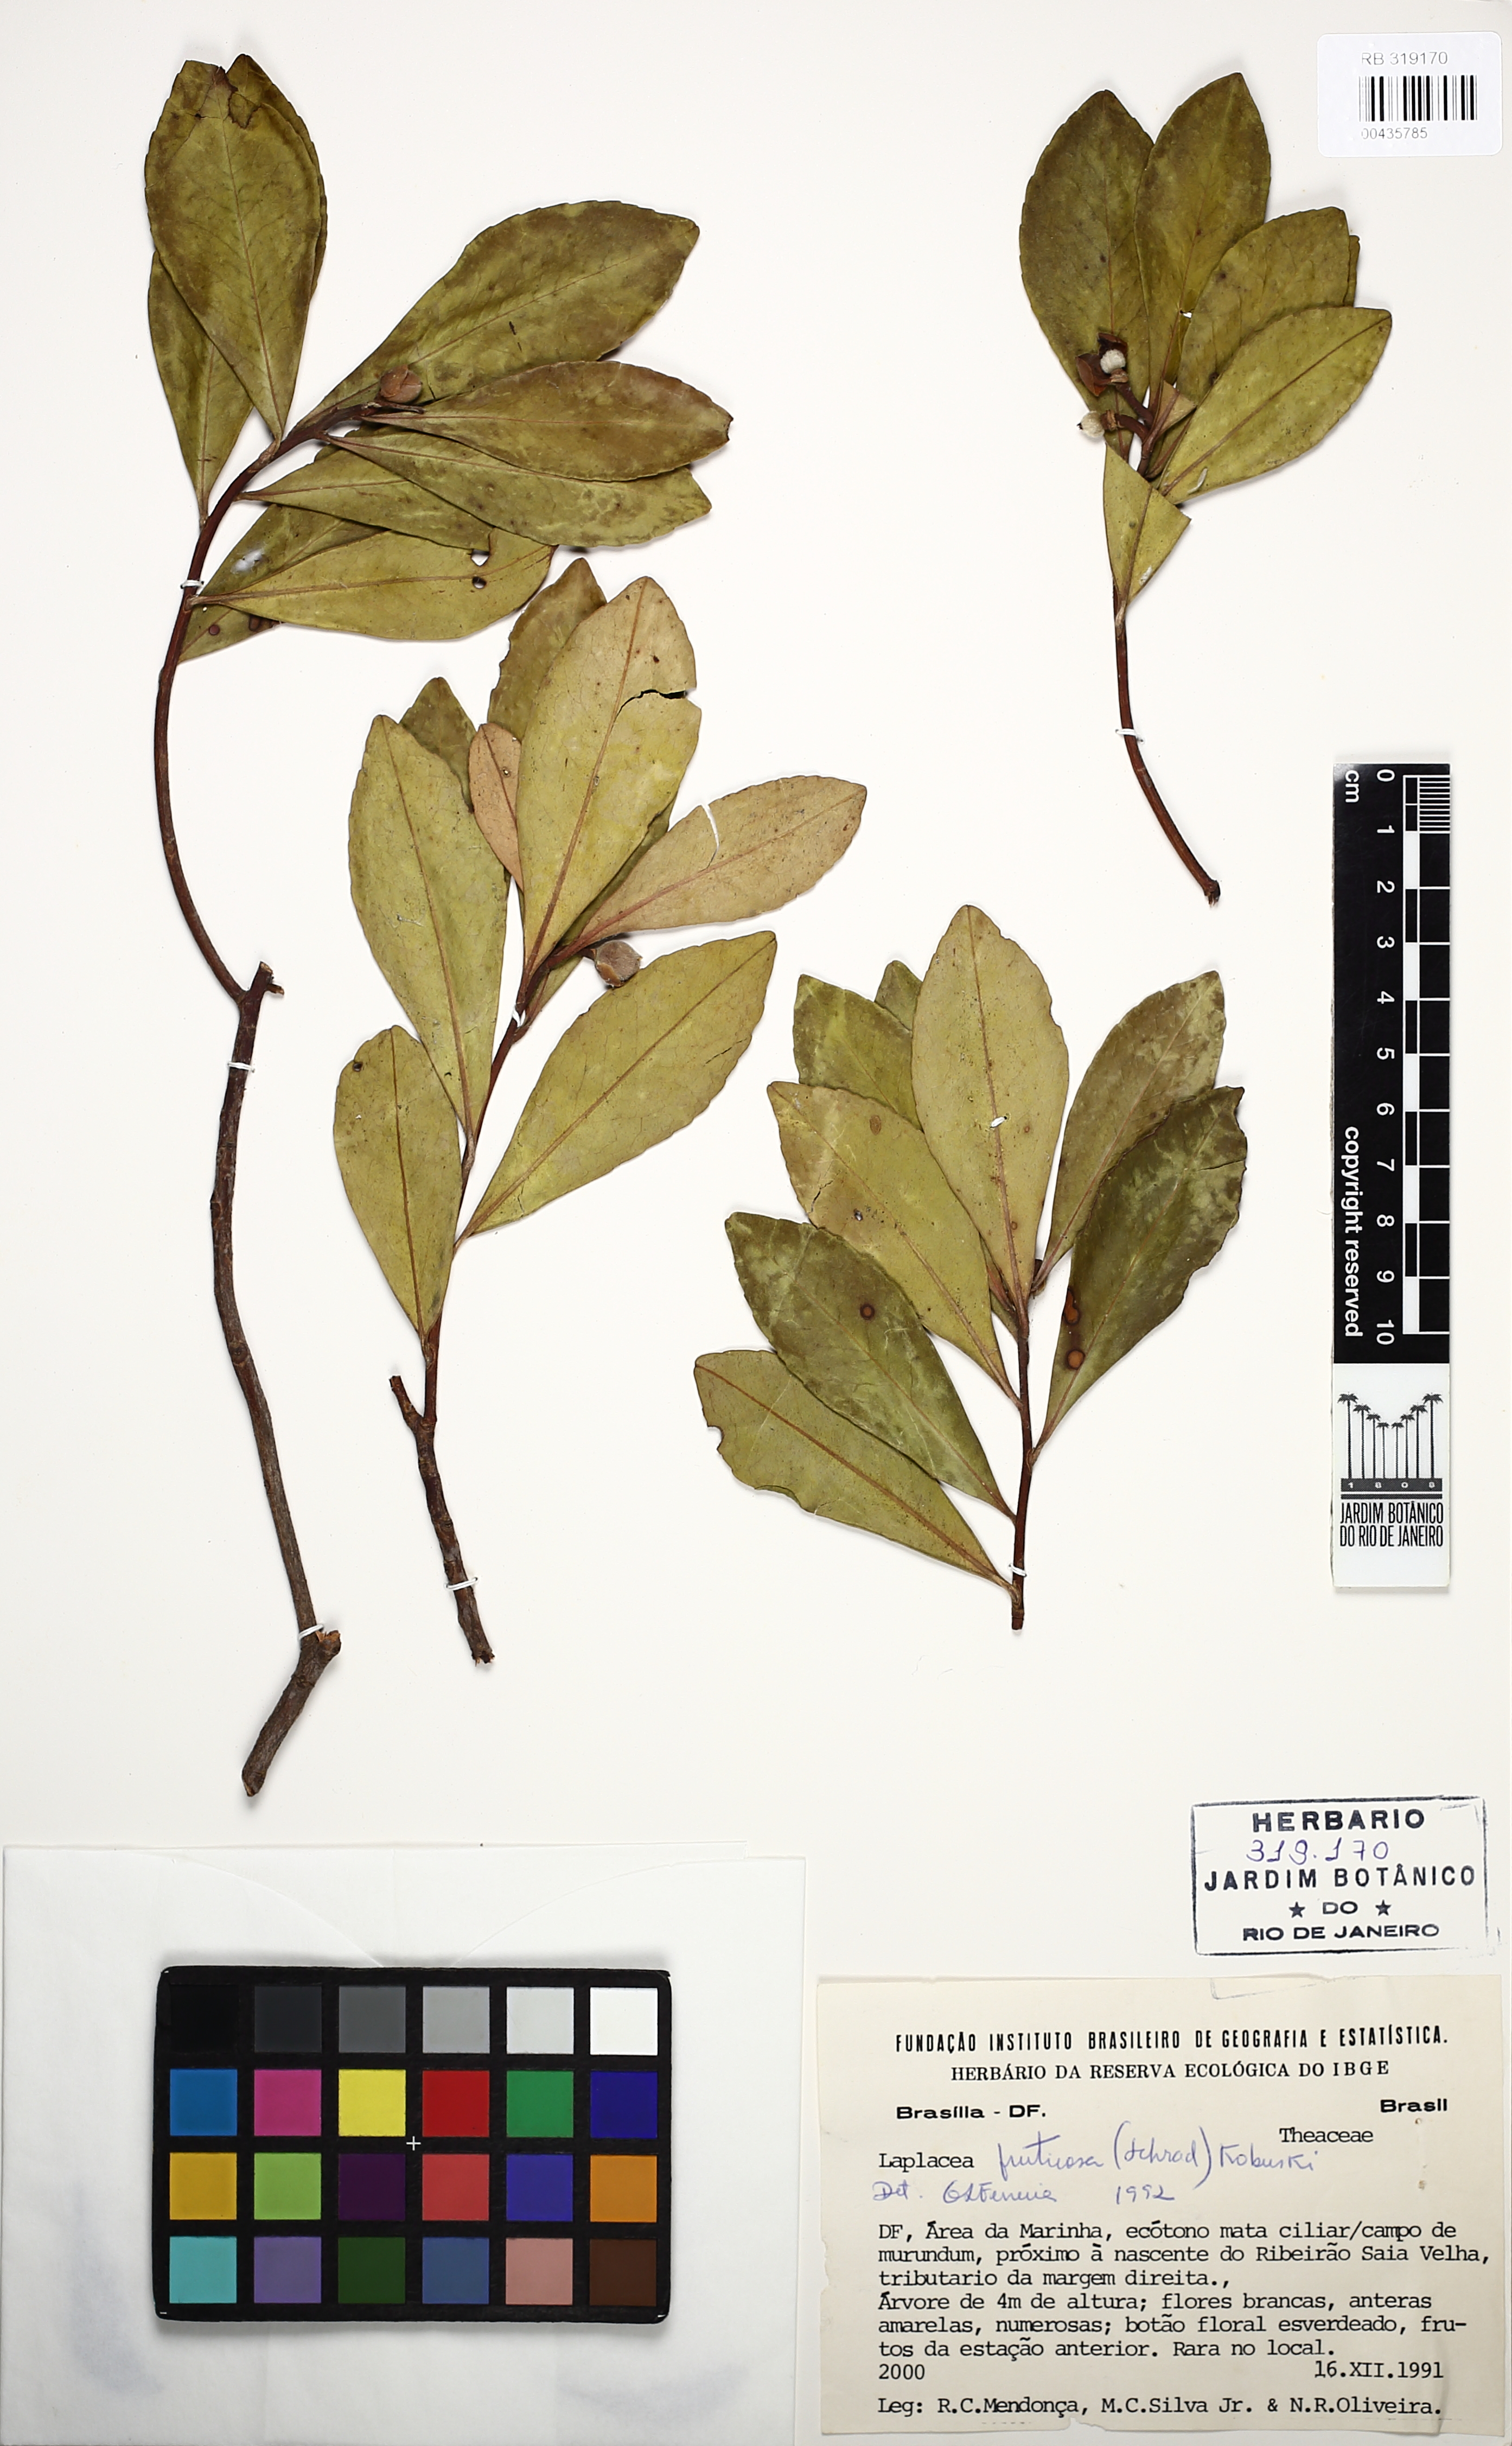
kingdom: Plantae
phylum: Tracheophyta
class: Magnoliopsida
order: Ericales
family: Theaceae
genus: Gordonia
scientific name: Gordonia fruticosa
